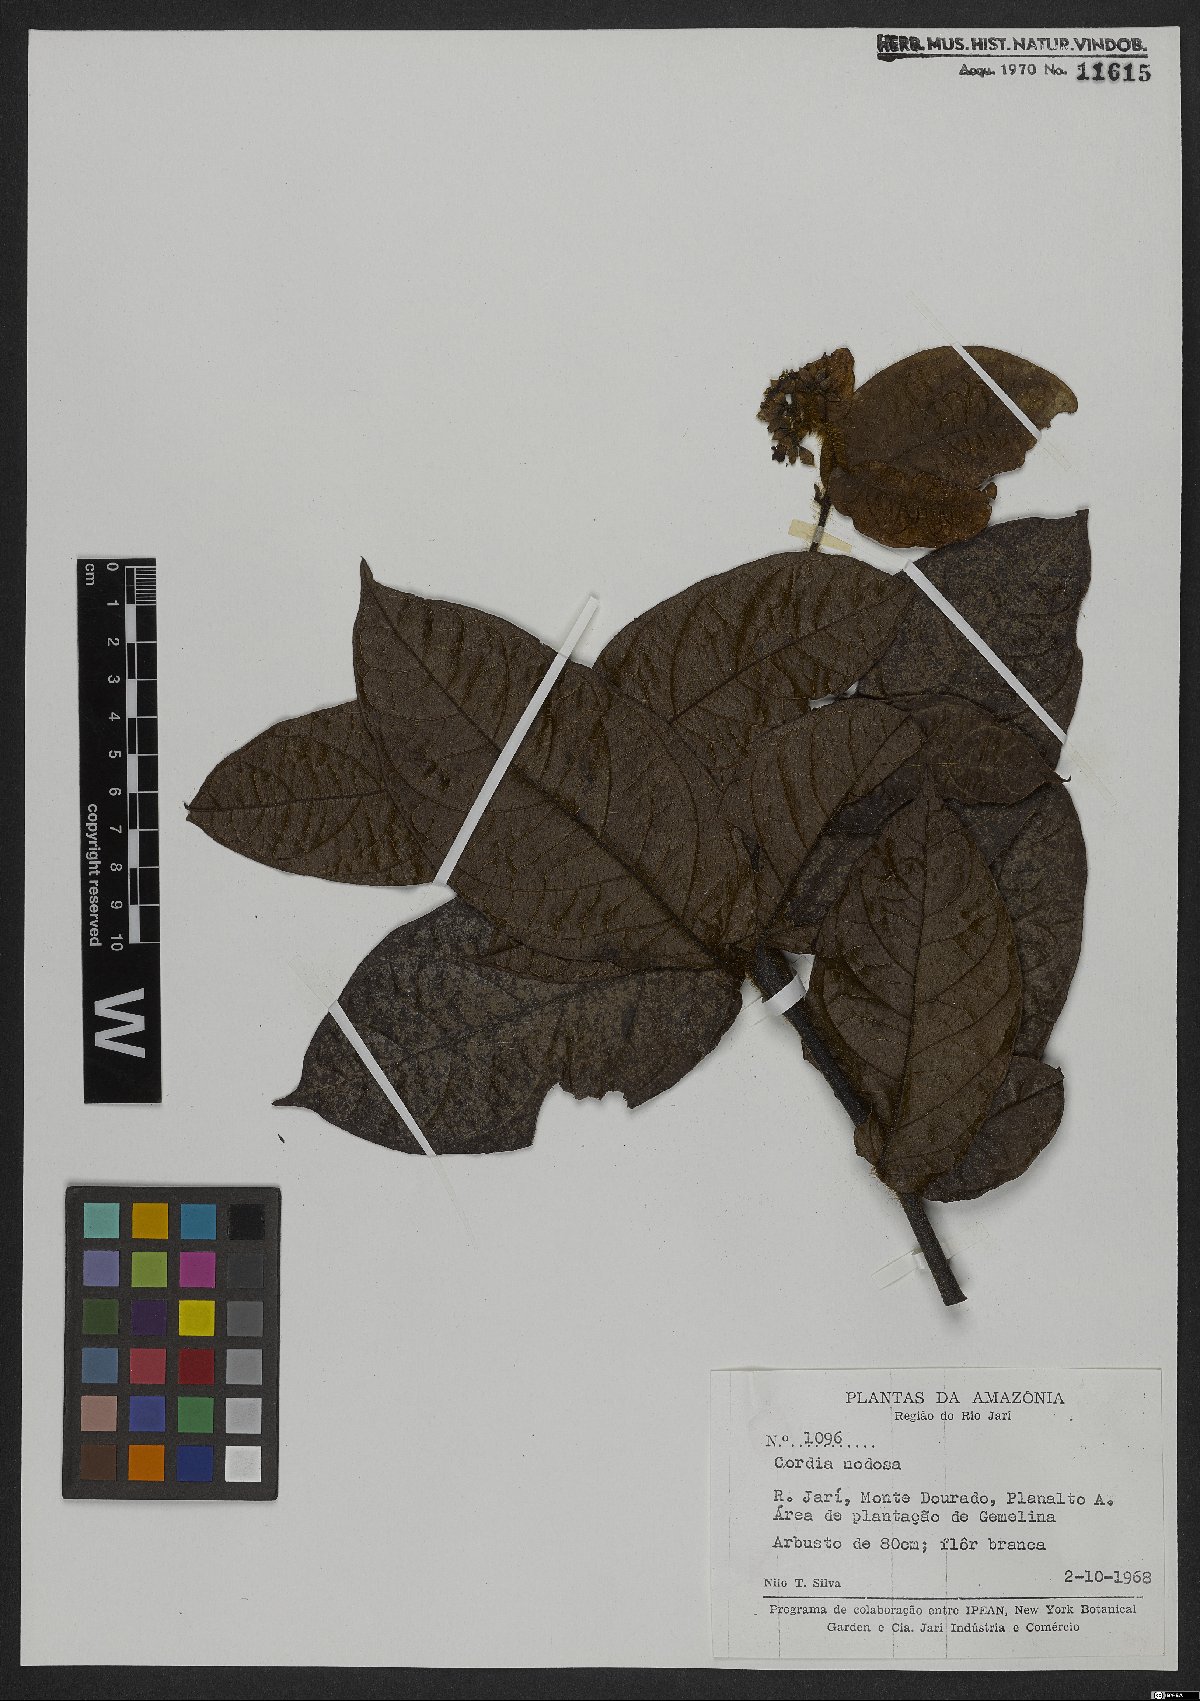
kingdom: Plantae
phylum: Tracheophyta
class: Magnoliopsida
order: Boraginales
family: Cordiaceae
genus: Cordia
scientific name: Cordia nodosa
